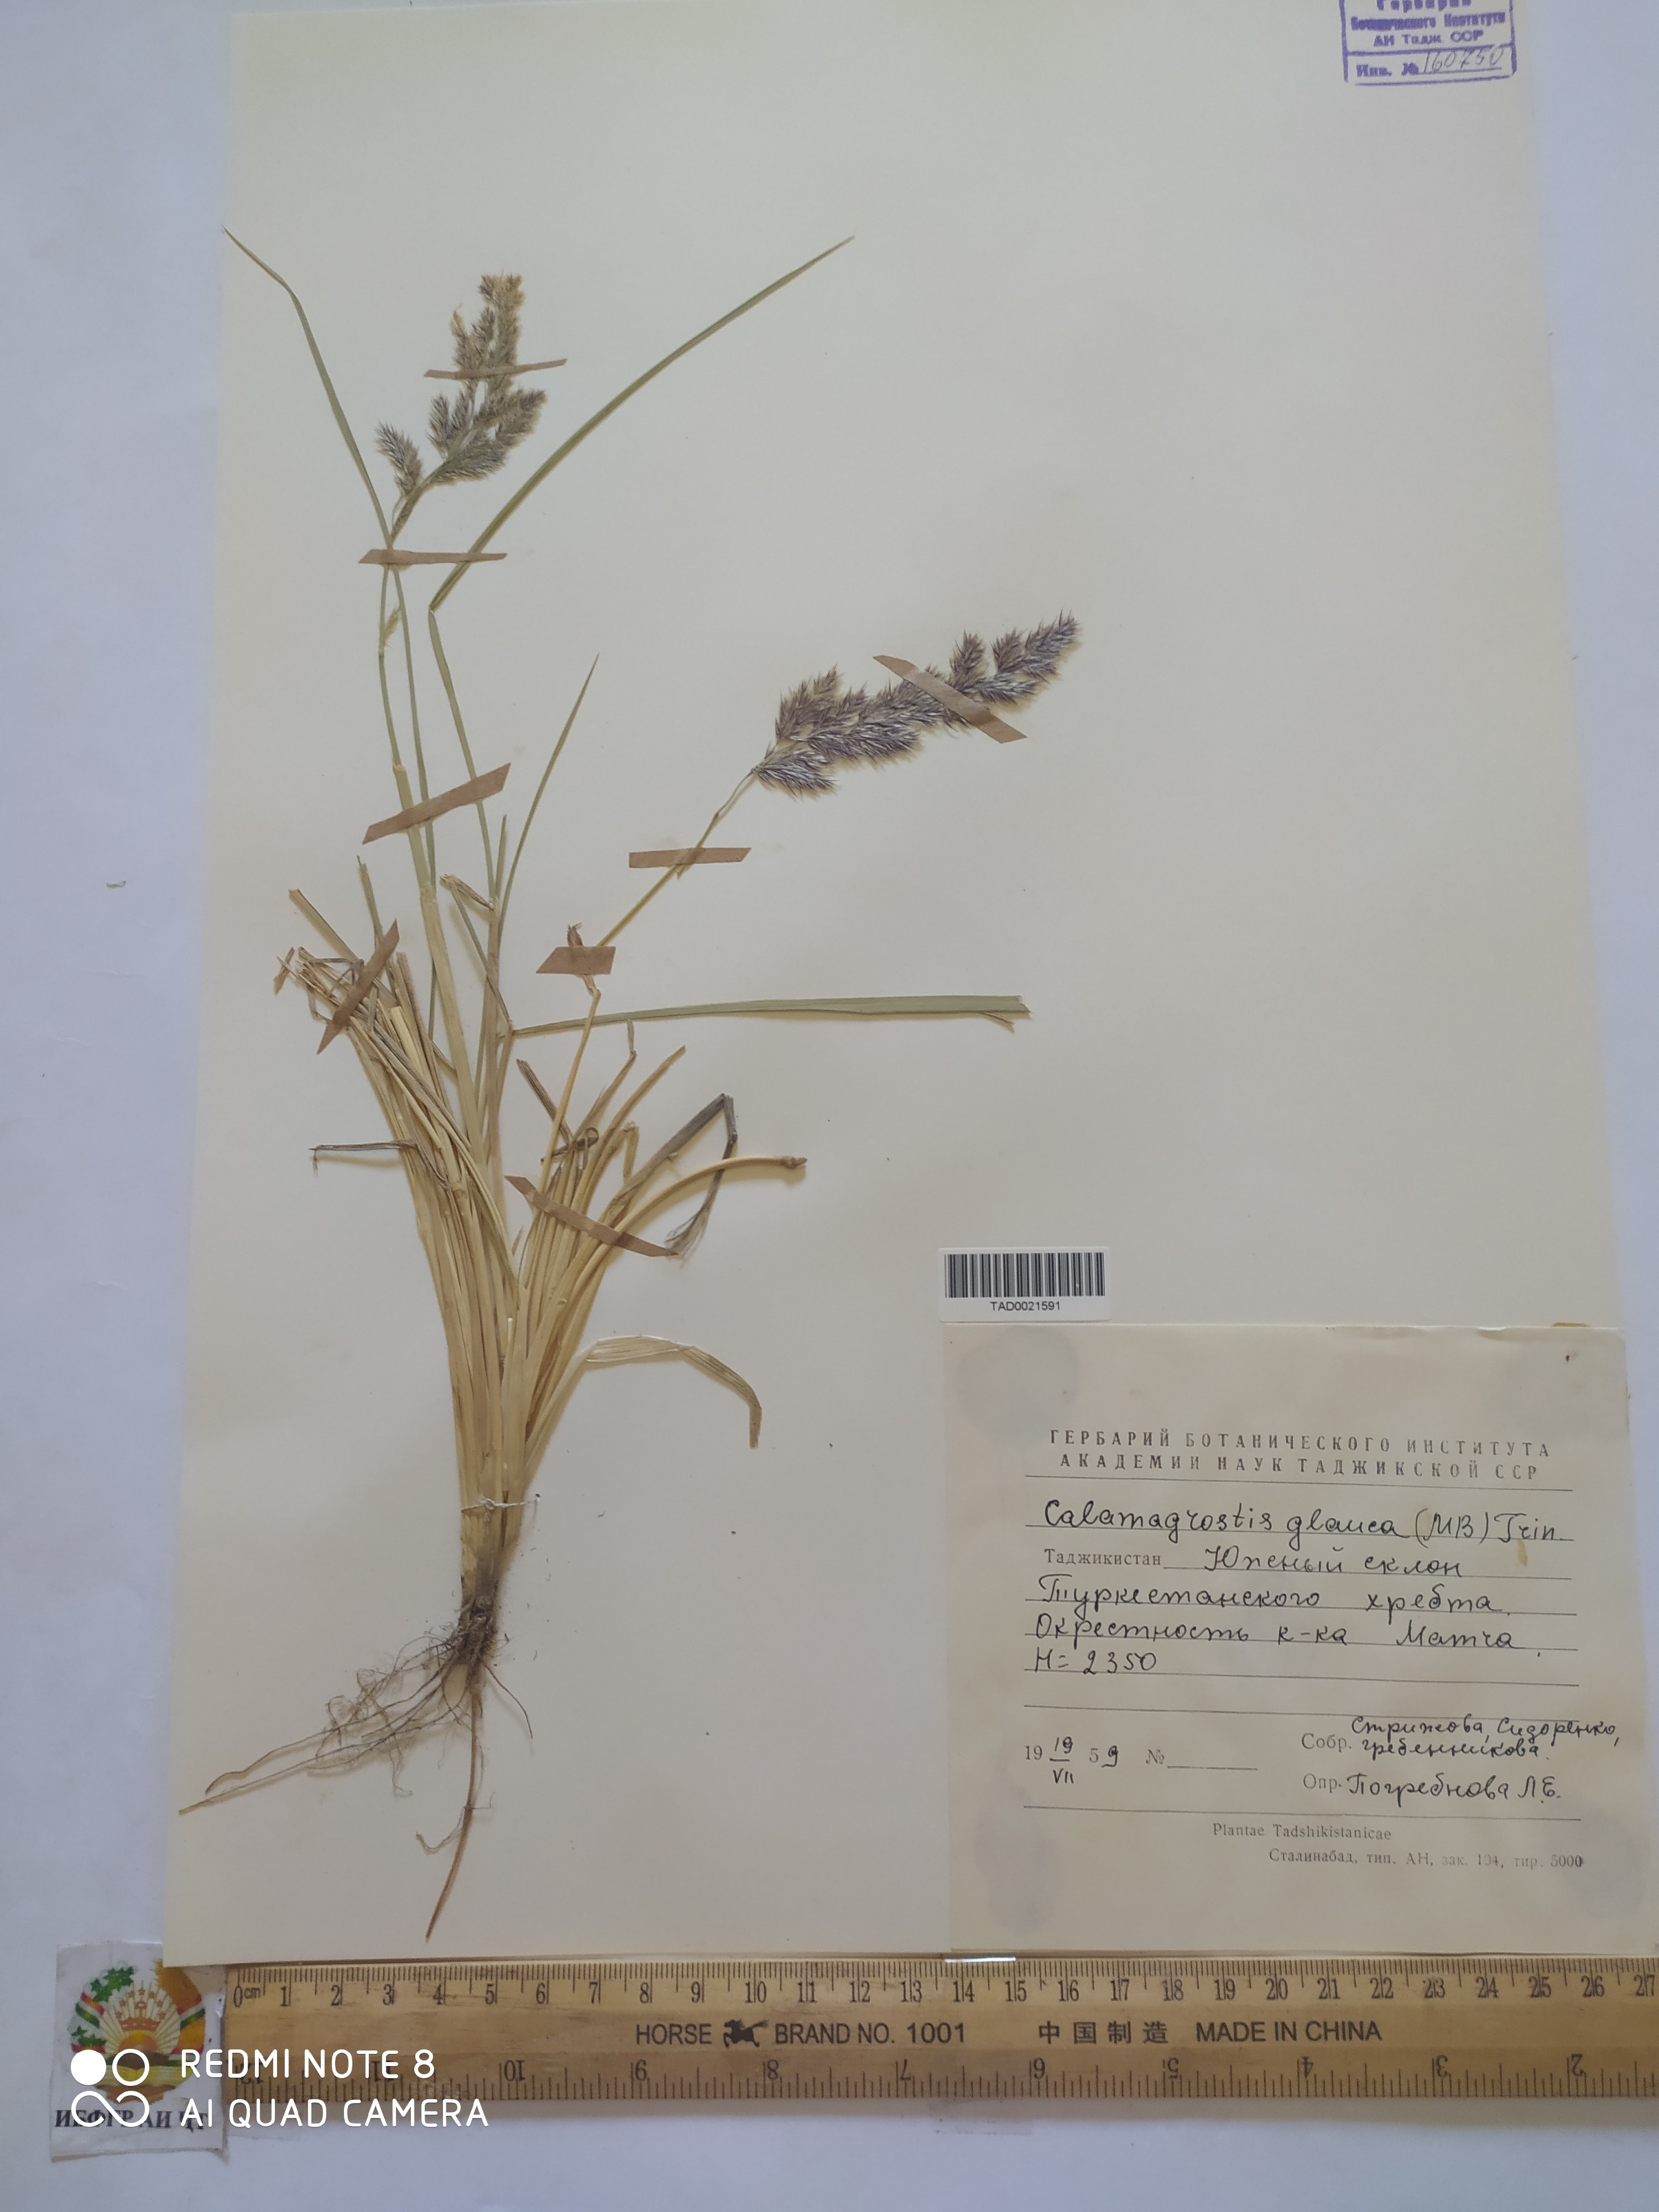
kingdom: Plantae
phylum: Tracheophyta
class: Liliopsida
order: Poales
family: Poaceae
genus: Calamagrostis
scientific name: Calamagrostis pseudophragmites
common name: Coastal small-reed
